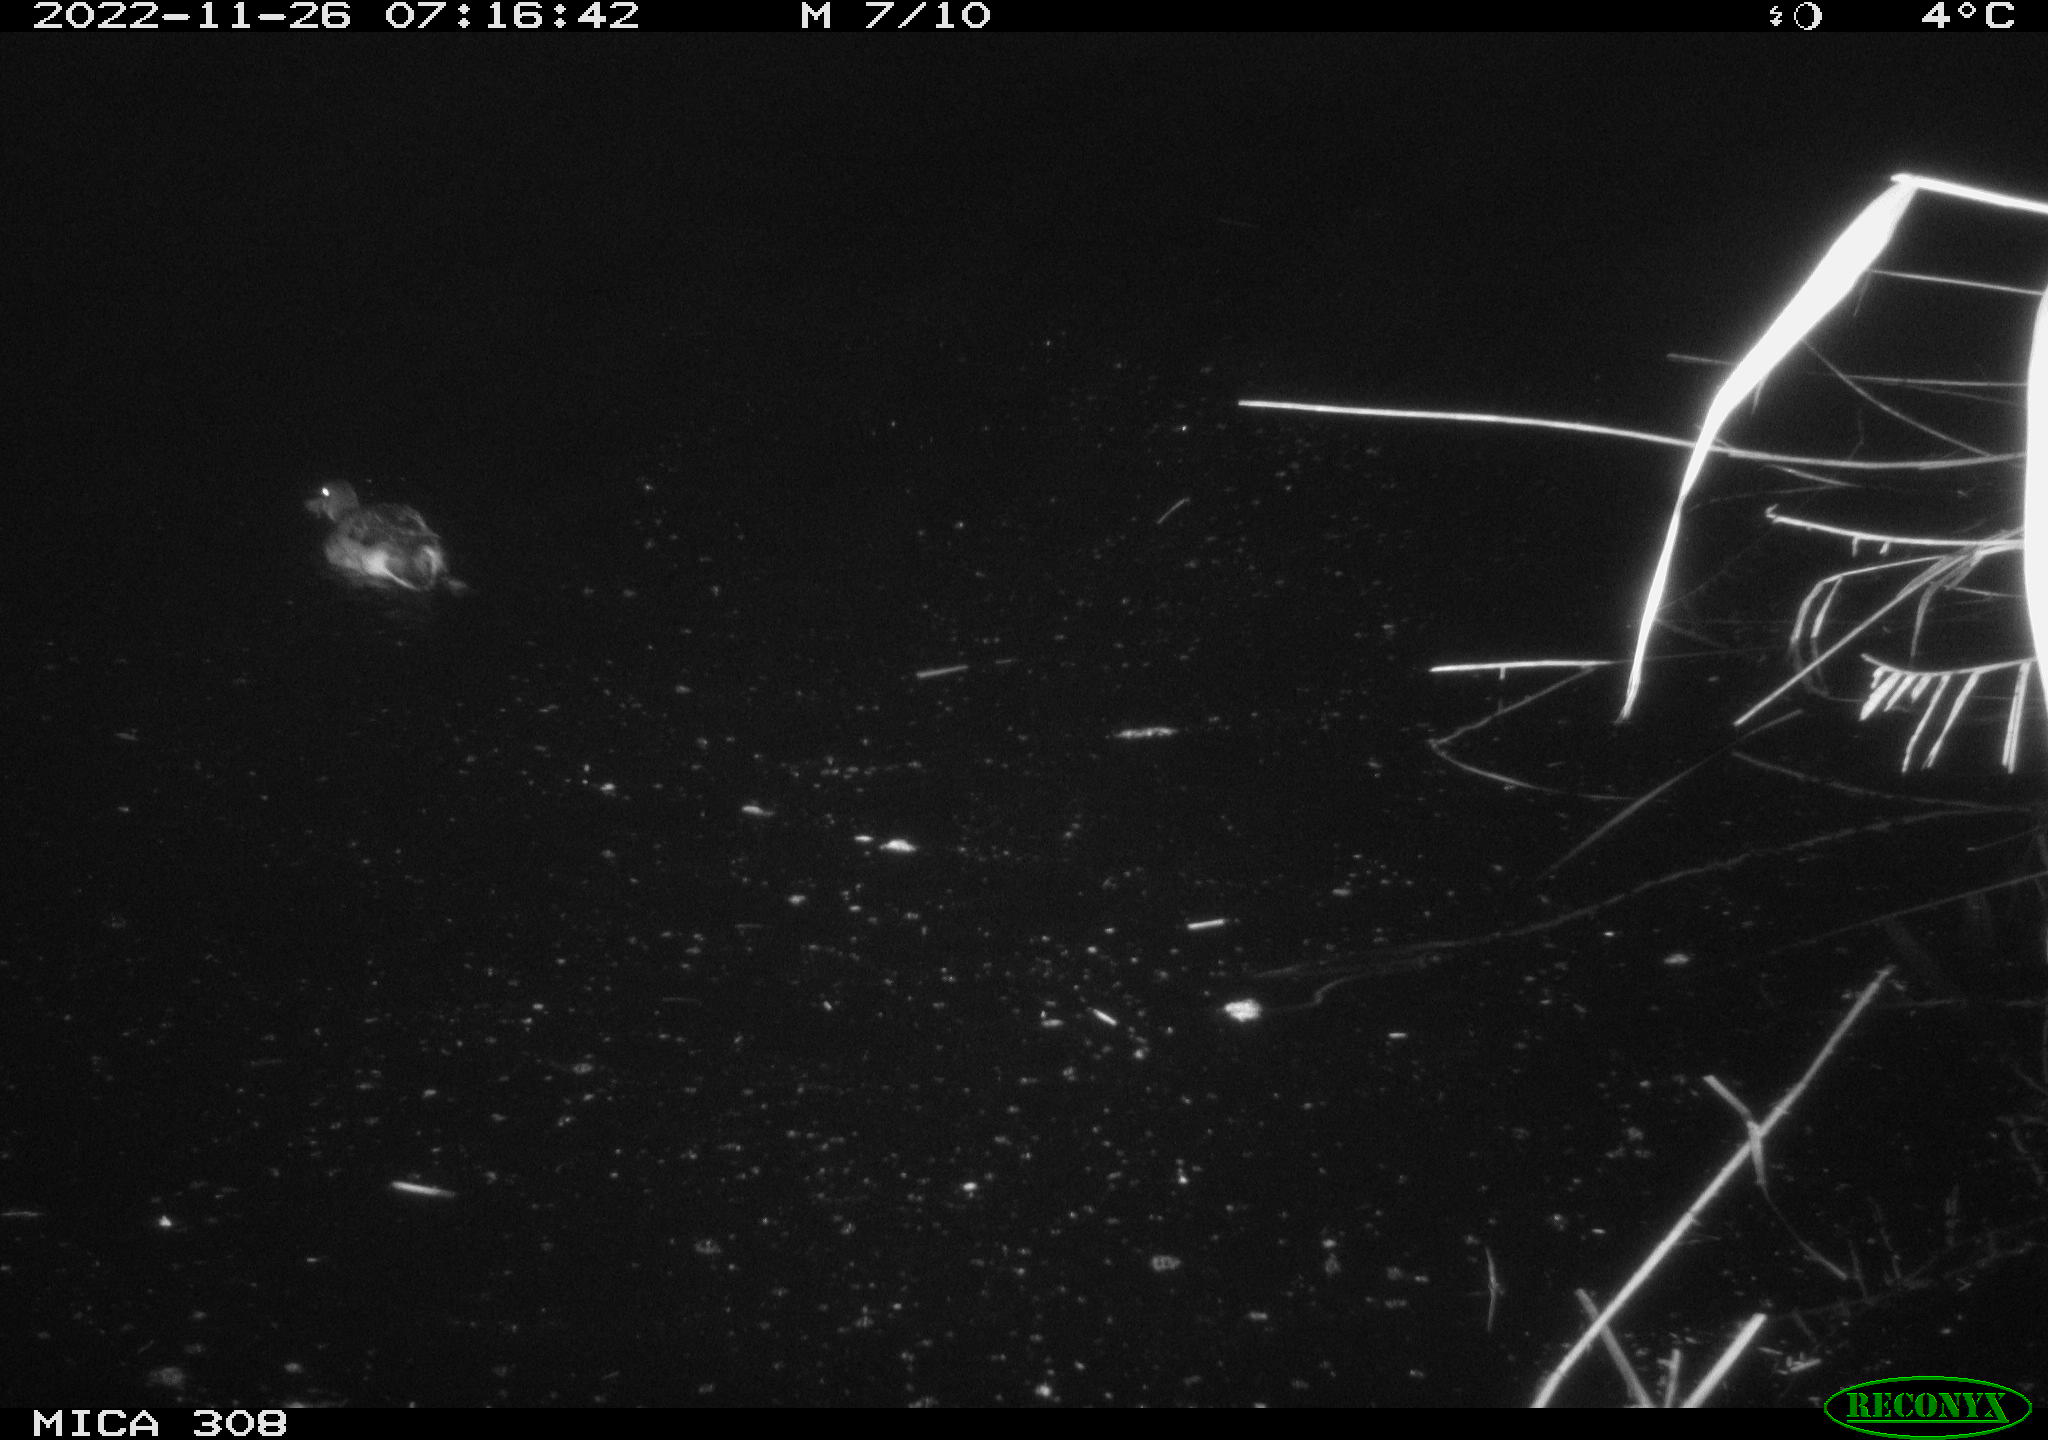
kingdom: Animalia
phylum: Chordata
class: Aves
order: Anseriformes
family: Anatidae
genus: Anas
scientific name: Anas
